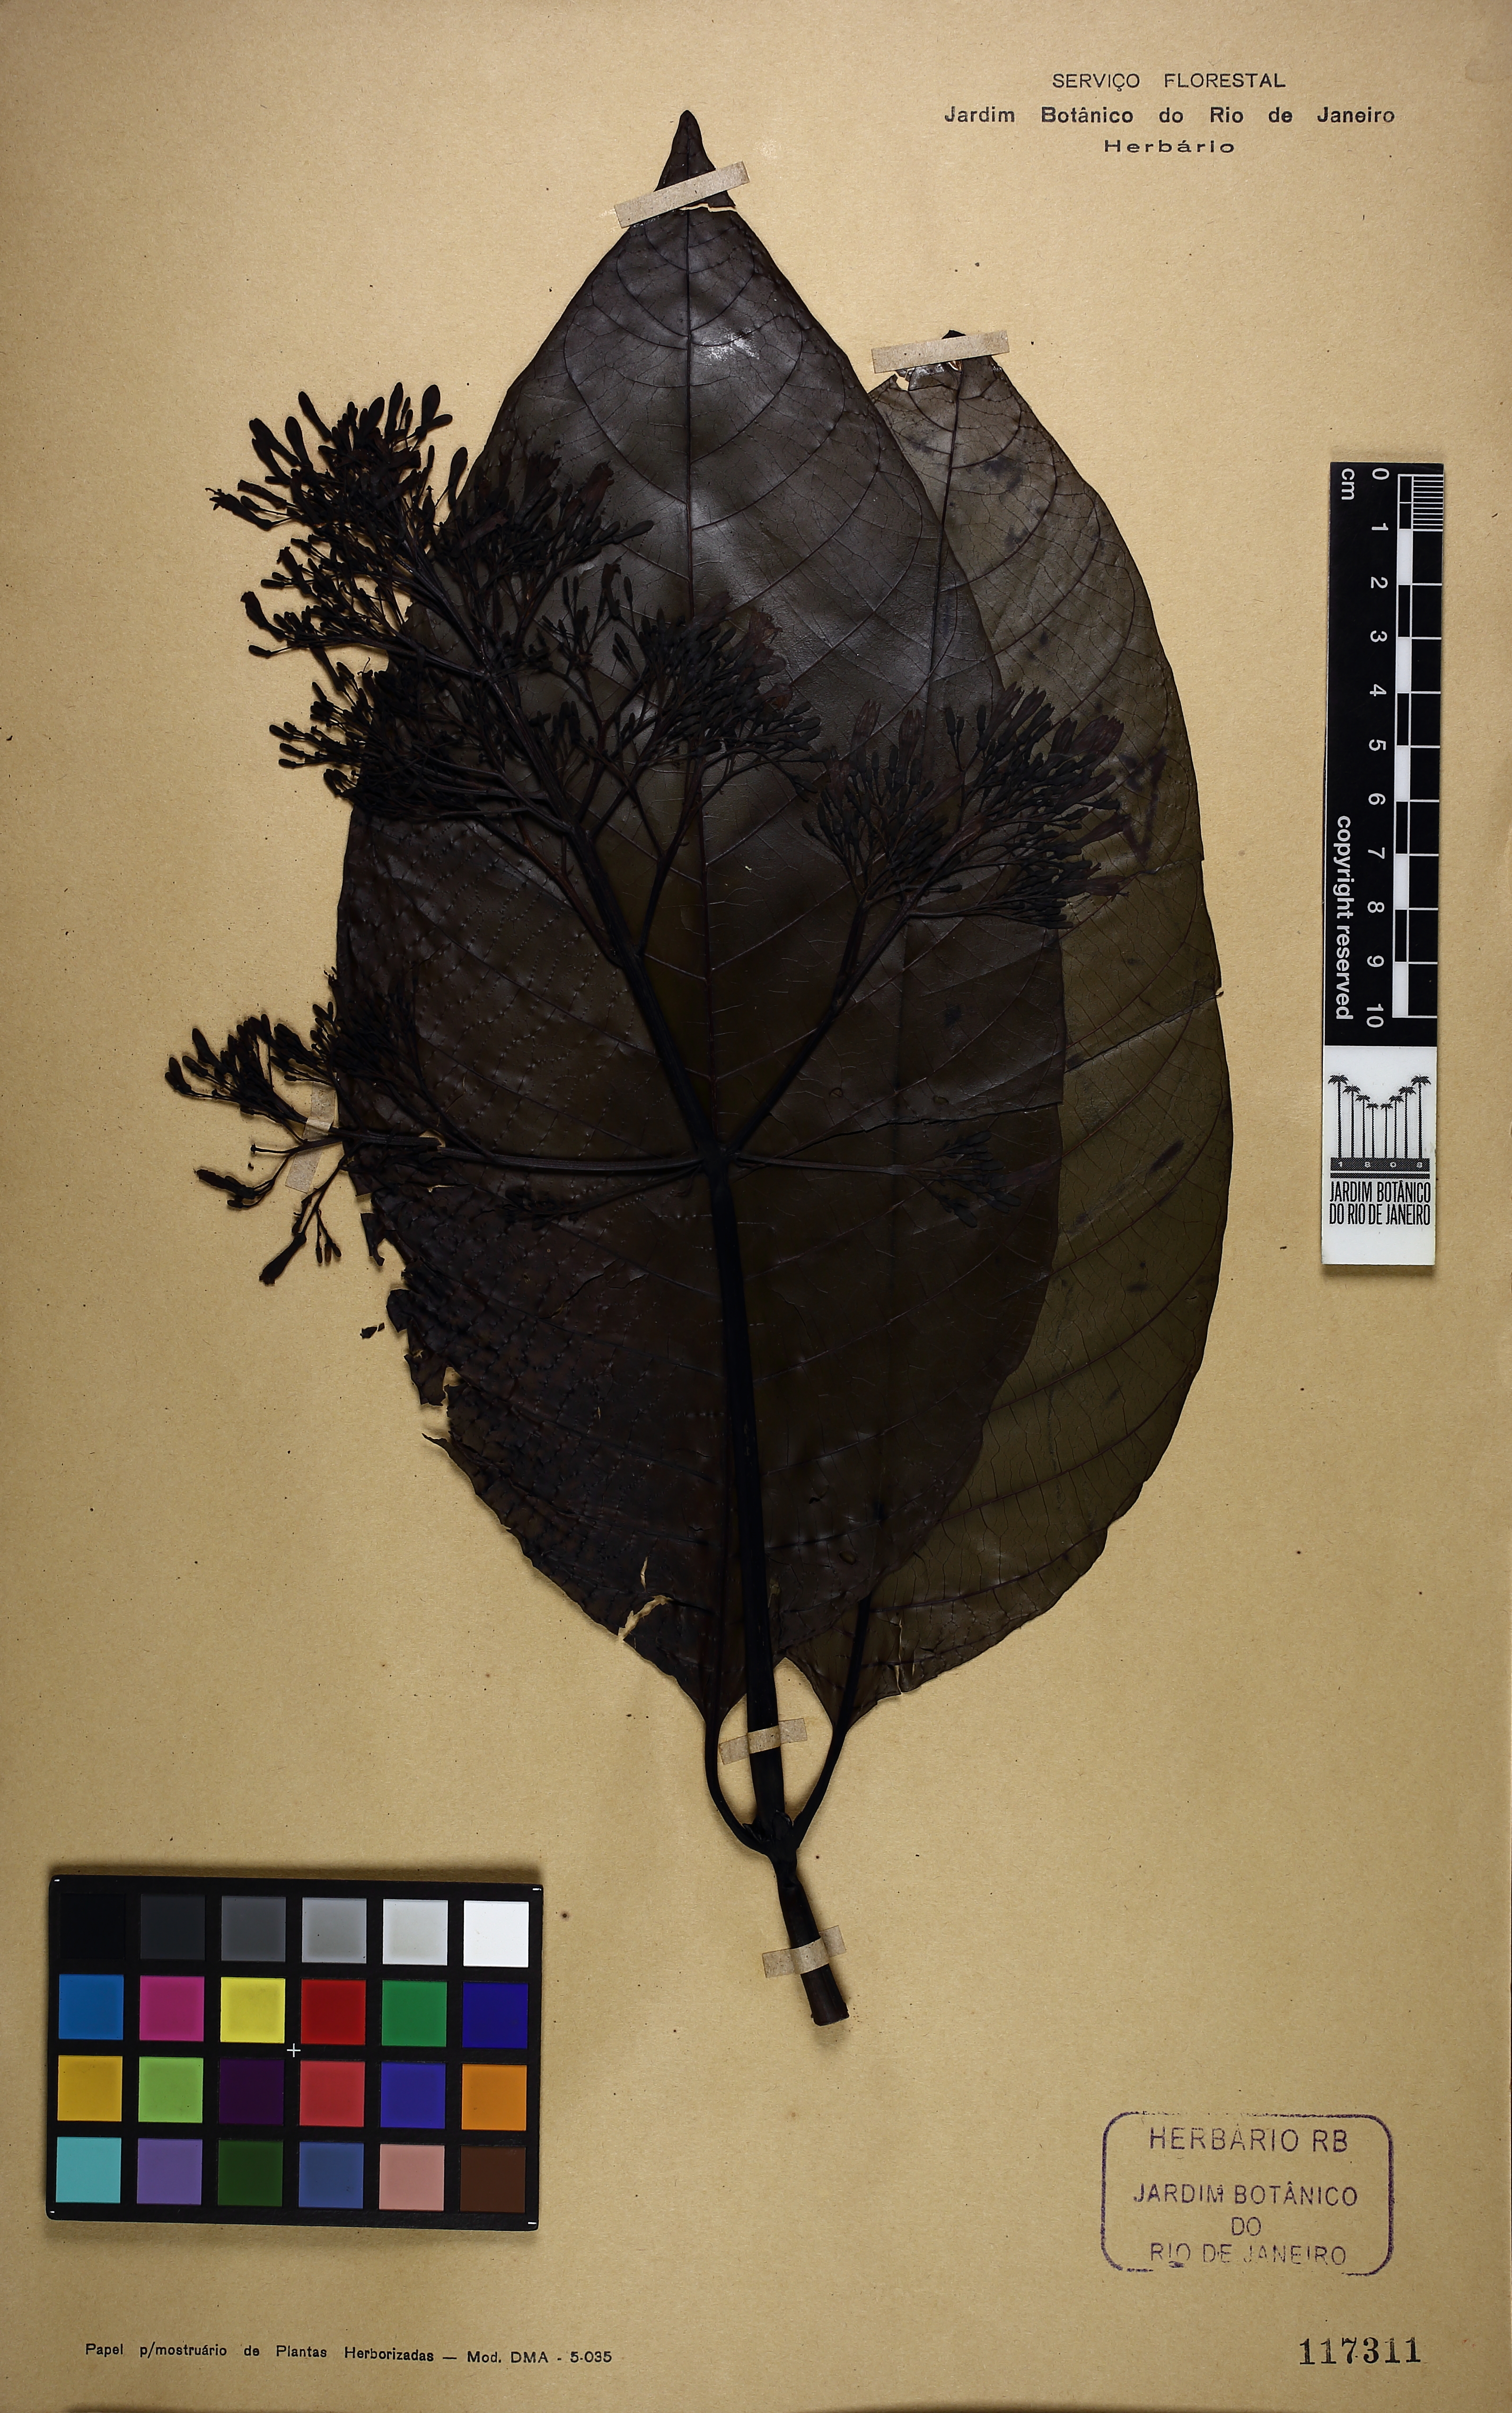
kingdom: Plantae
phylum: Tracheophyta
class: Magnoliopsida
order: Gentianales
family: Rubiaceae
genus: Palicourea
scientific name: Palicourea guianensis
